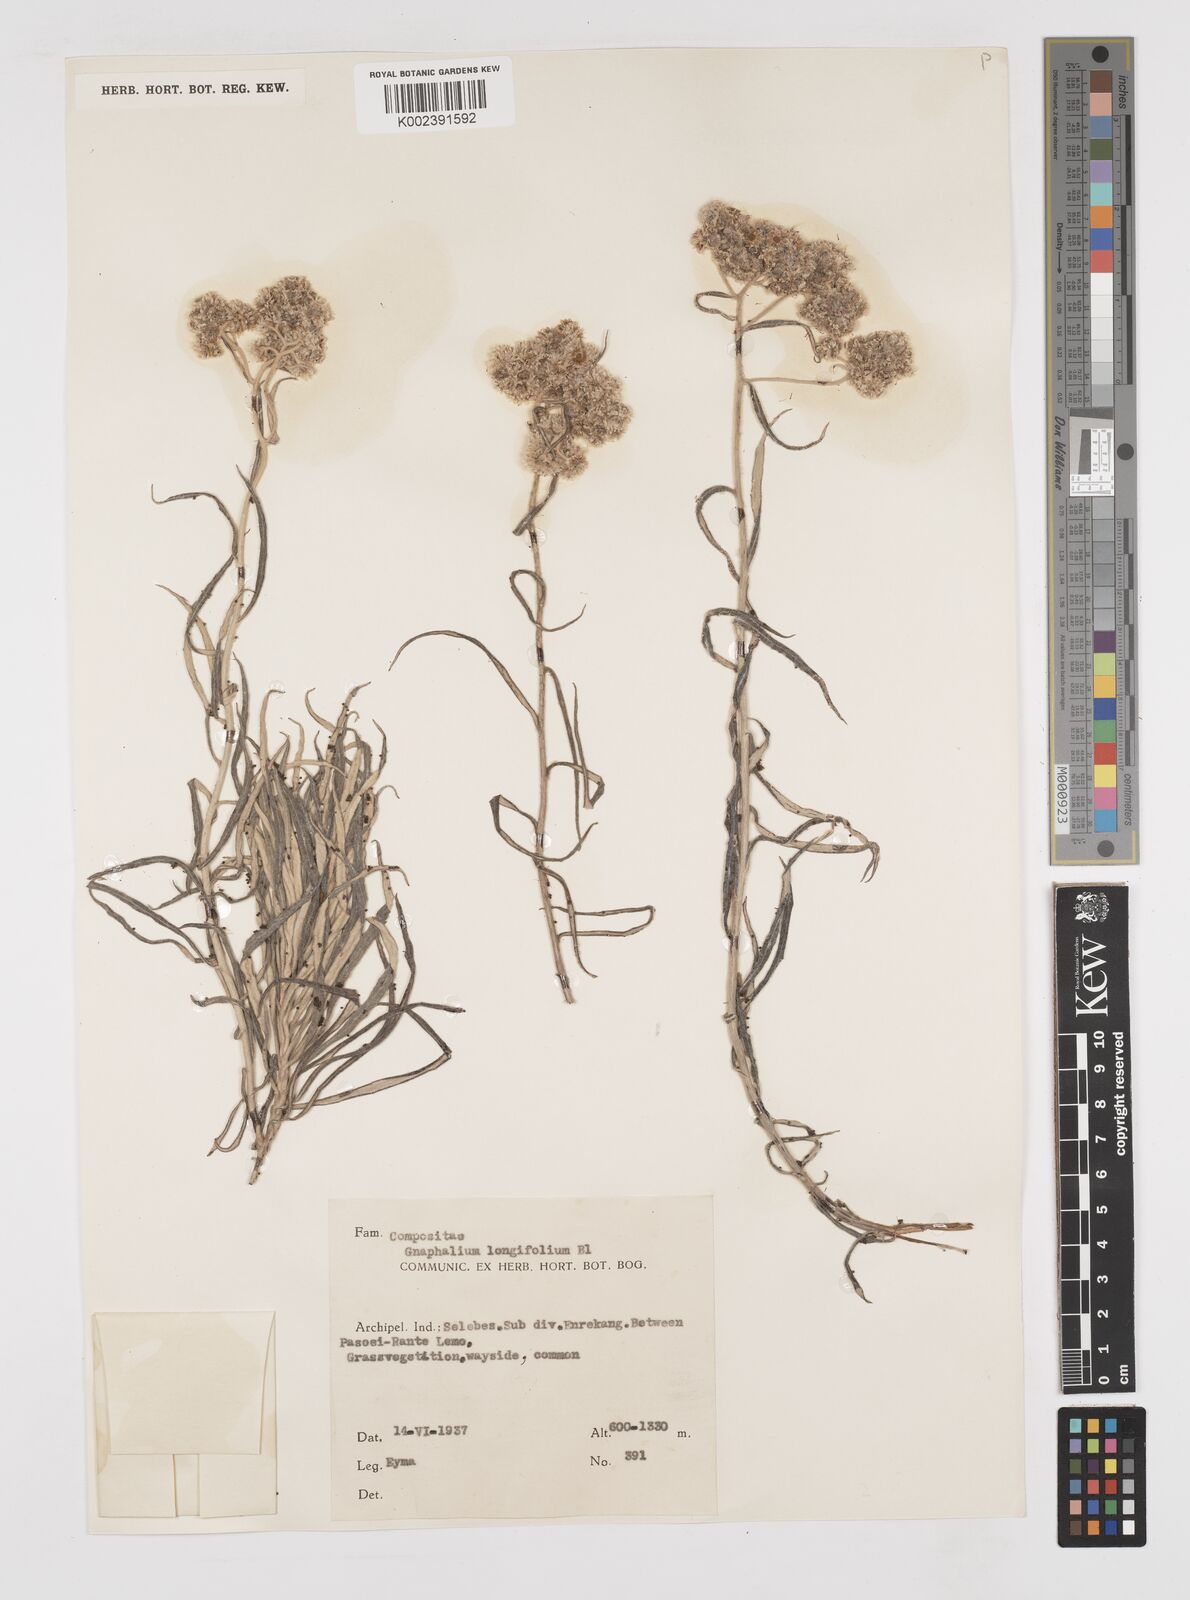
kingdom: Plantae
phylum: Tracheophyta
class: Magnoliopsida
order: Asterales
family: Asteraceae
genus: Anaphalis
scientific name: Anaphalis longifolia
